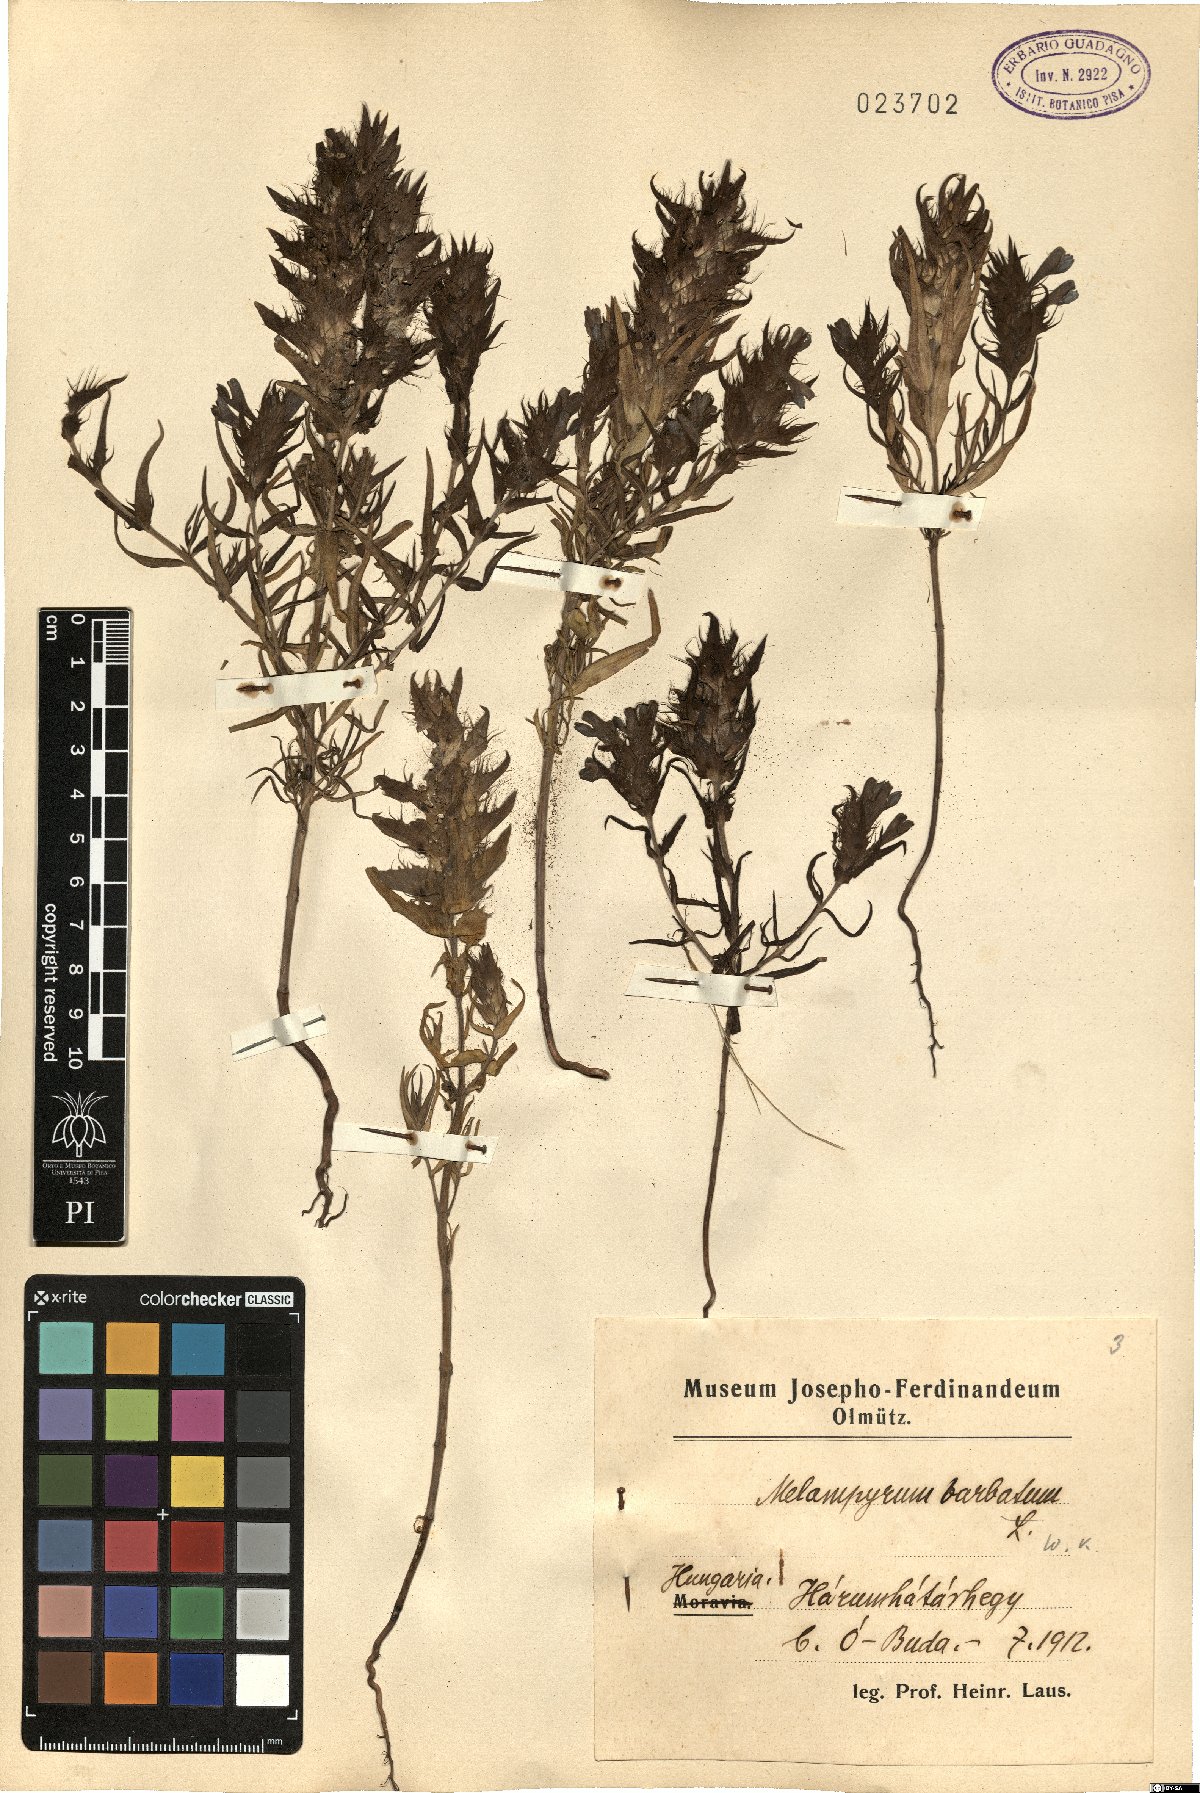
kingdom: Plantae
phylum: Tracheophyta
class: Magnoliopsida
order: Lamiales
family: Orobanchaceae
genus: Melampyrum
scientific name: Melampyrum barbatum
